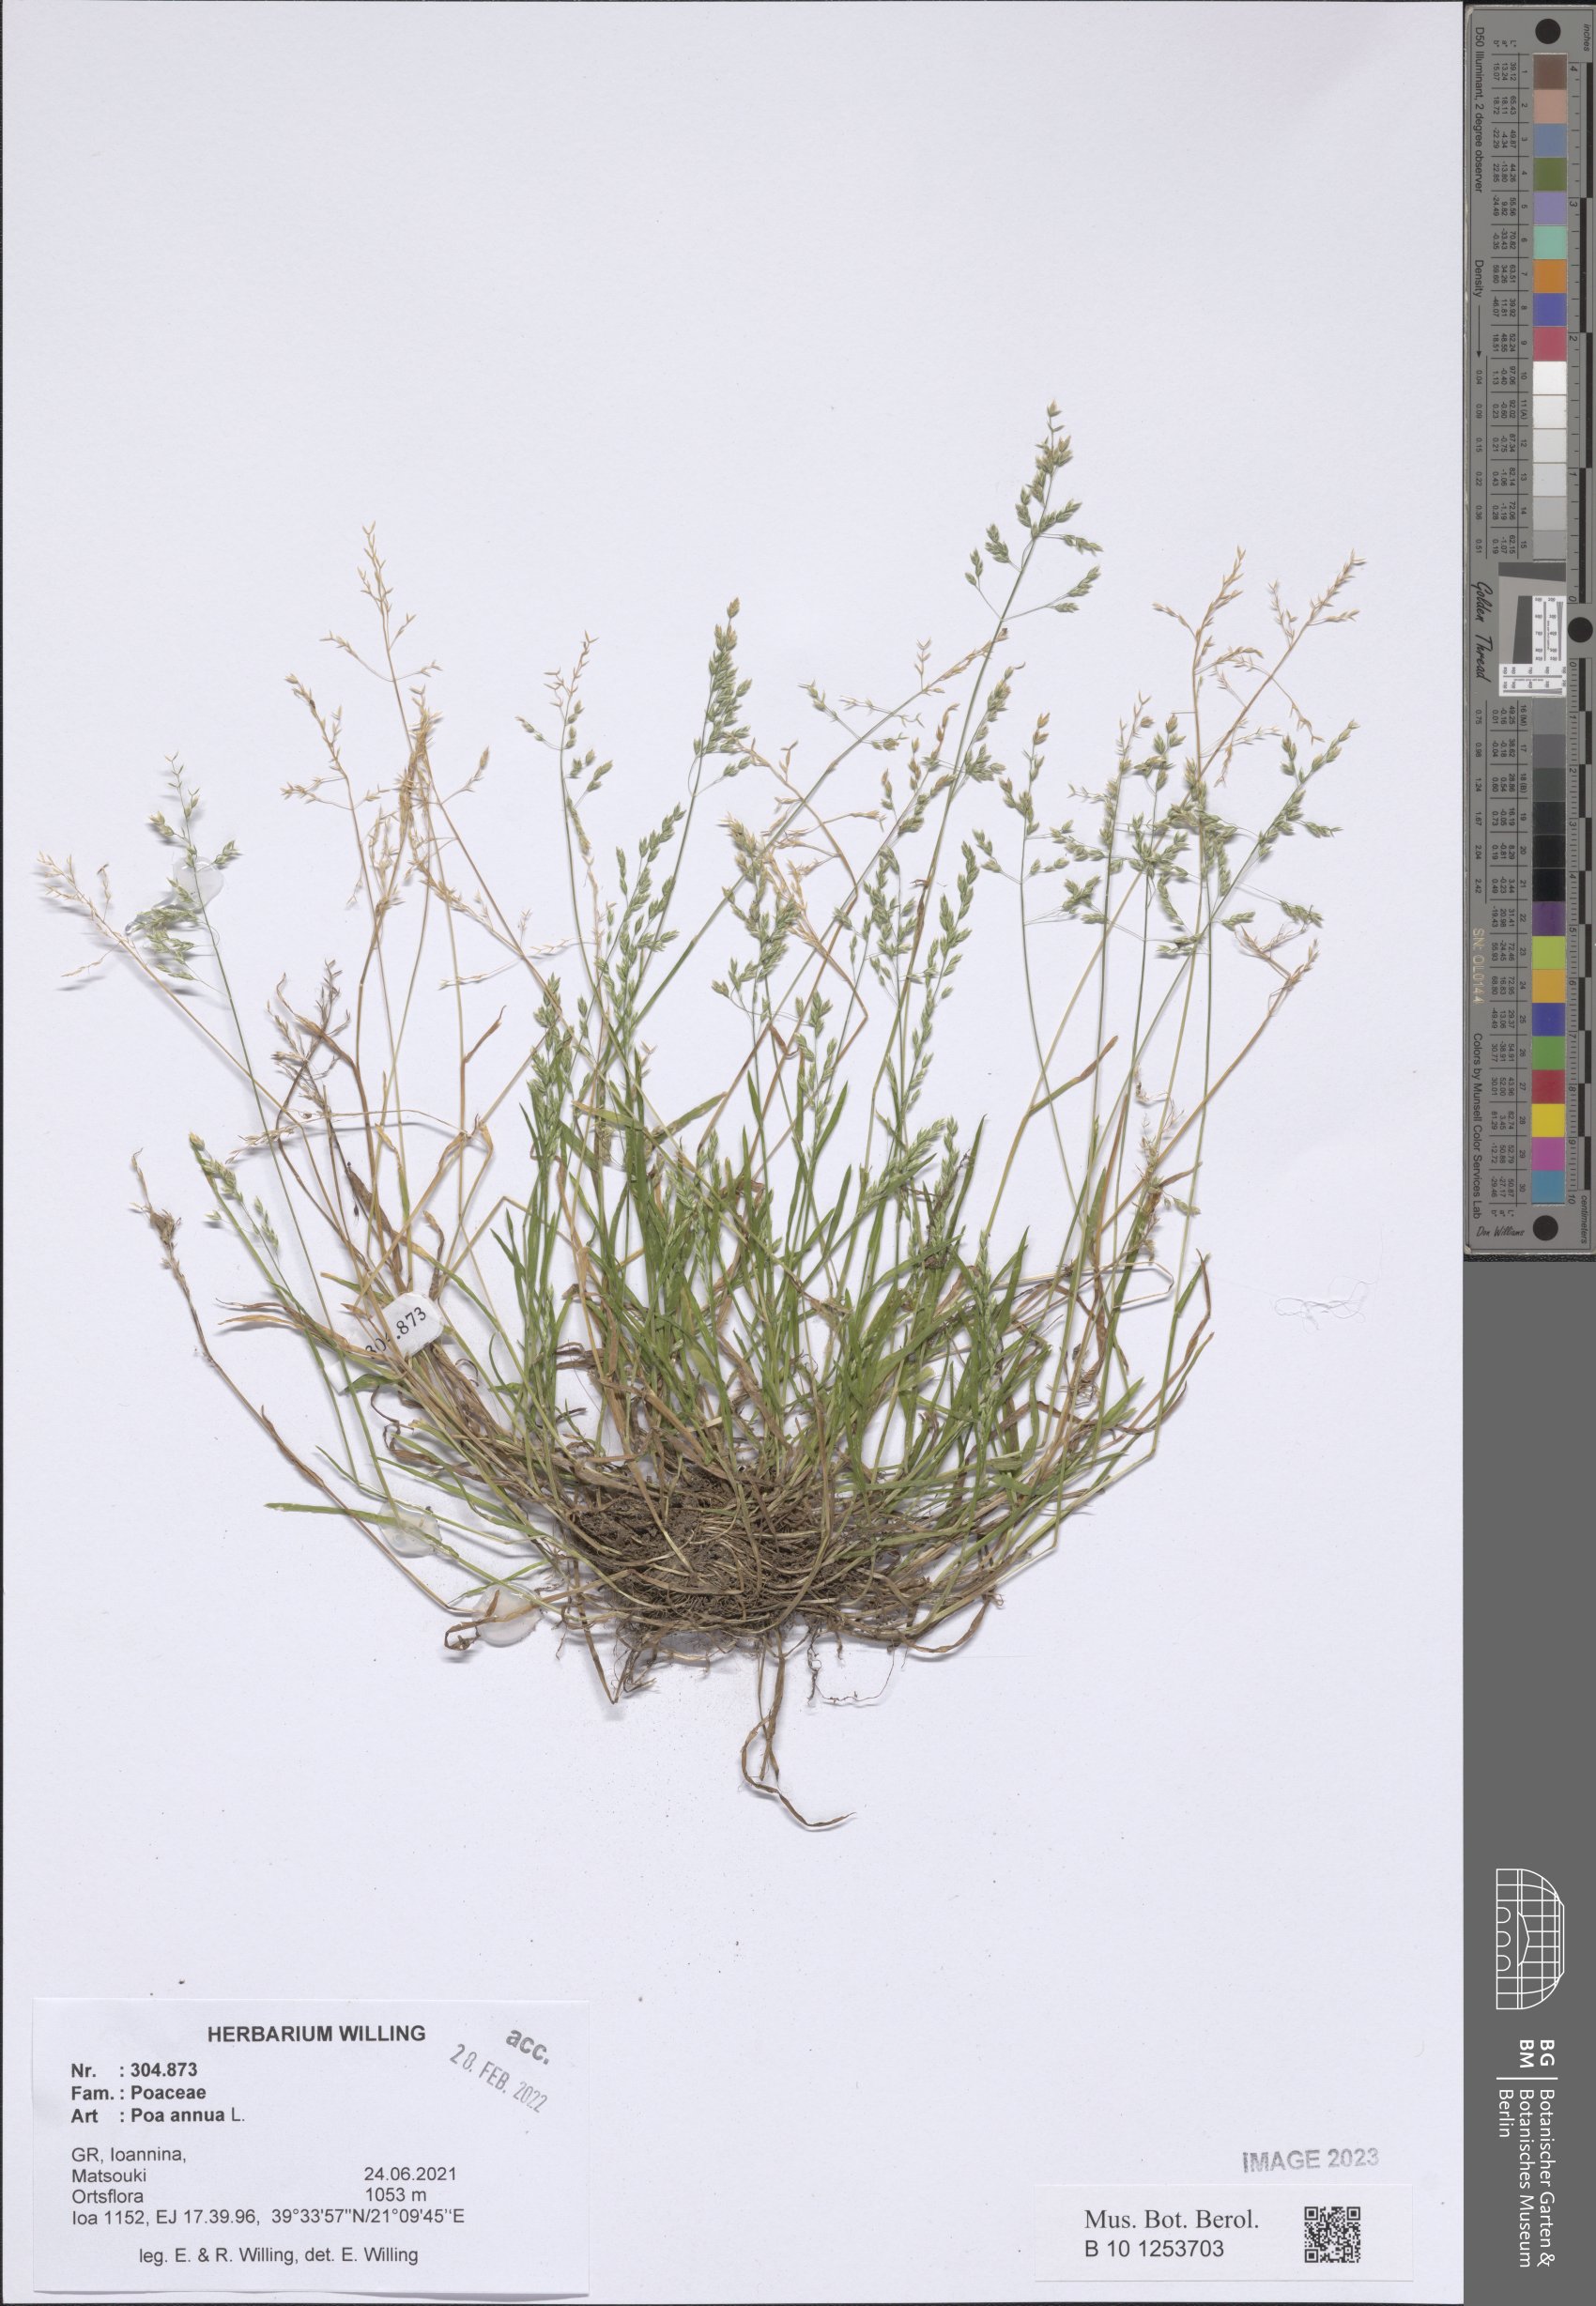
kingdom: Plantae
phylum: Tracheophyta
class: Liliopsida
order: Poales
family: Poaceae
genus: Poa
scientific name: Poa annua
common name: Annual bluegrass
